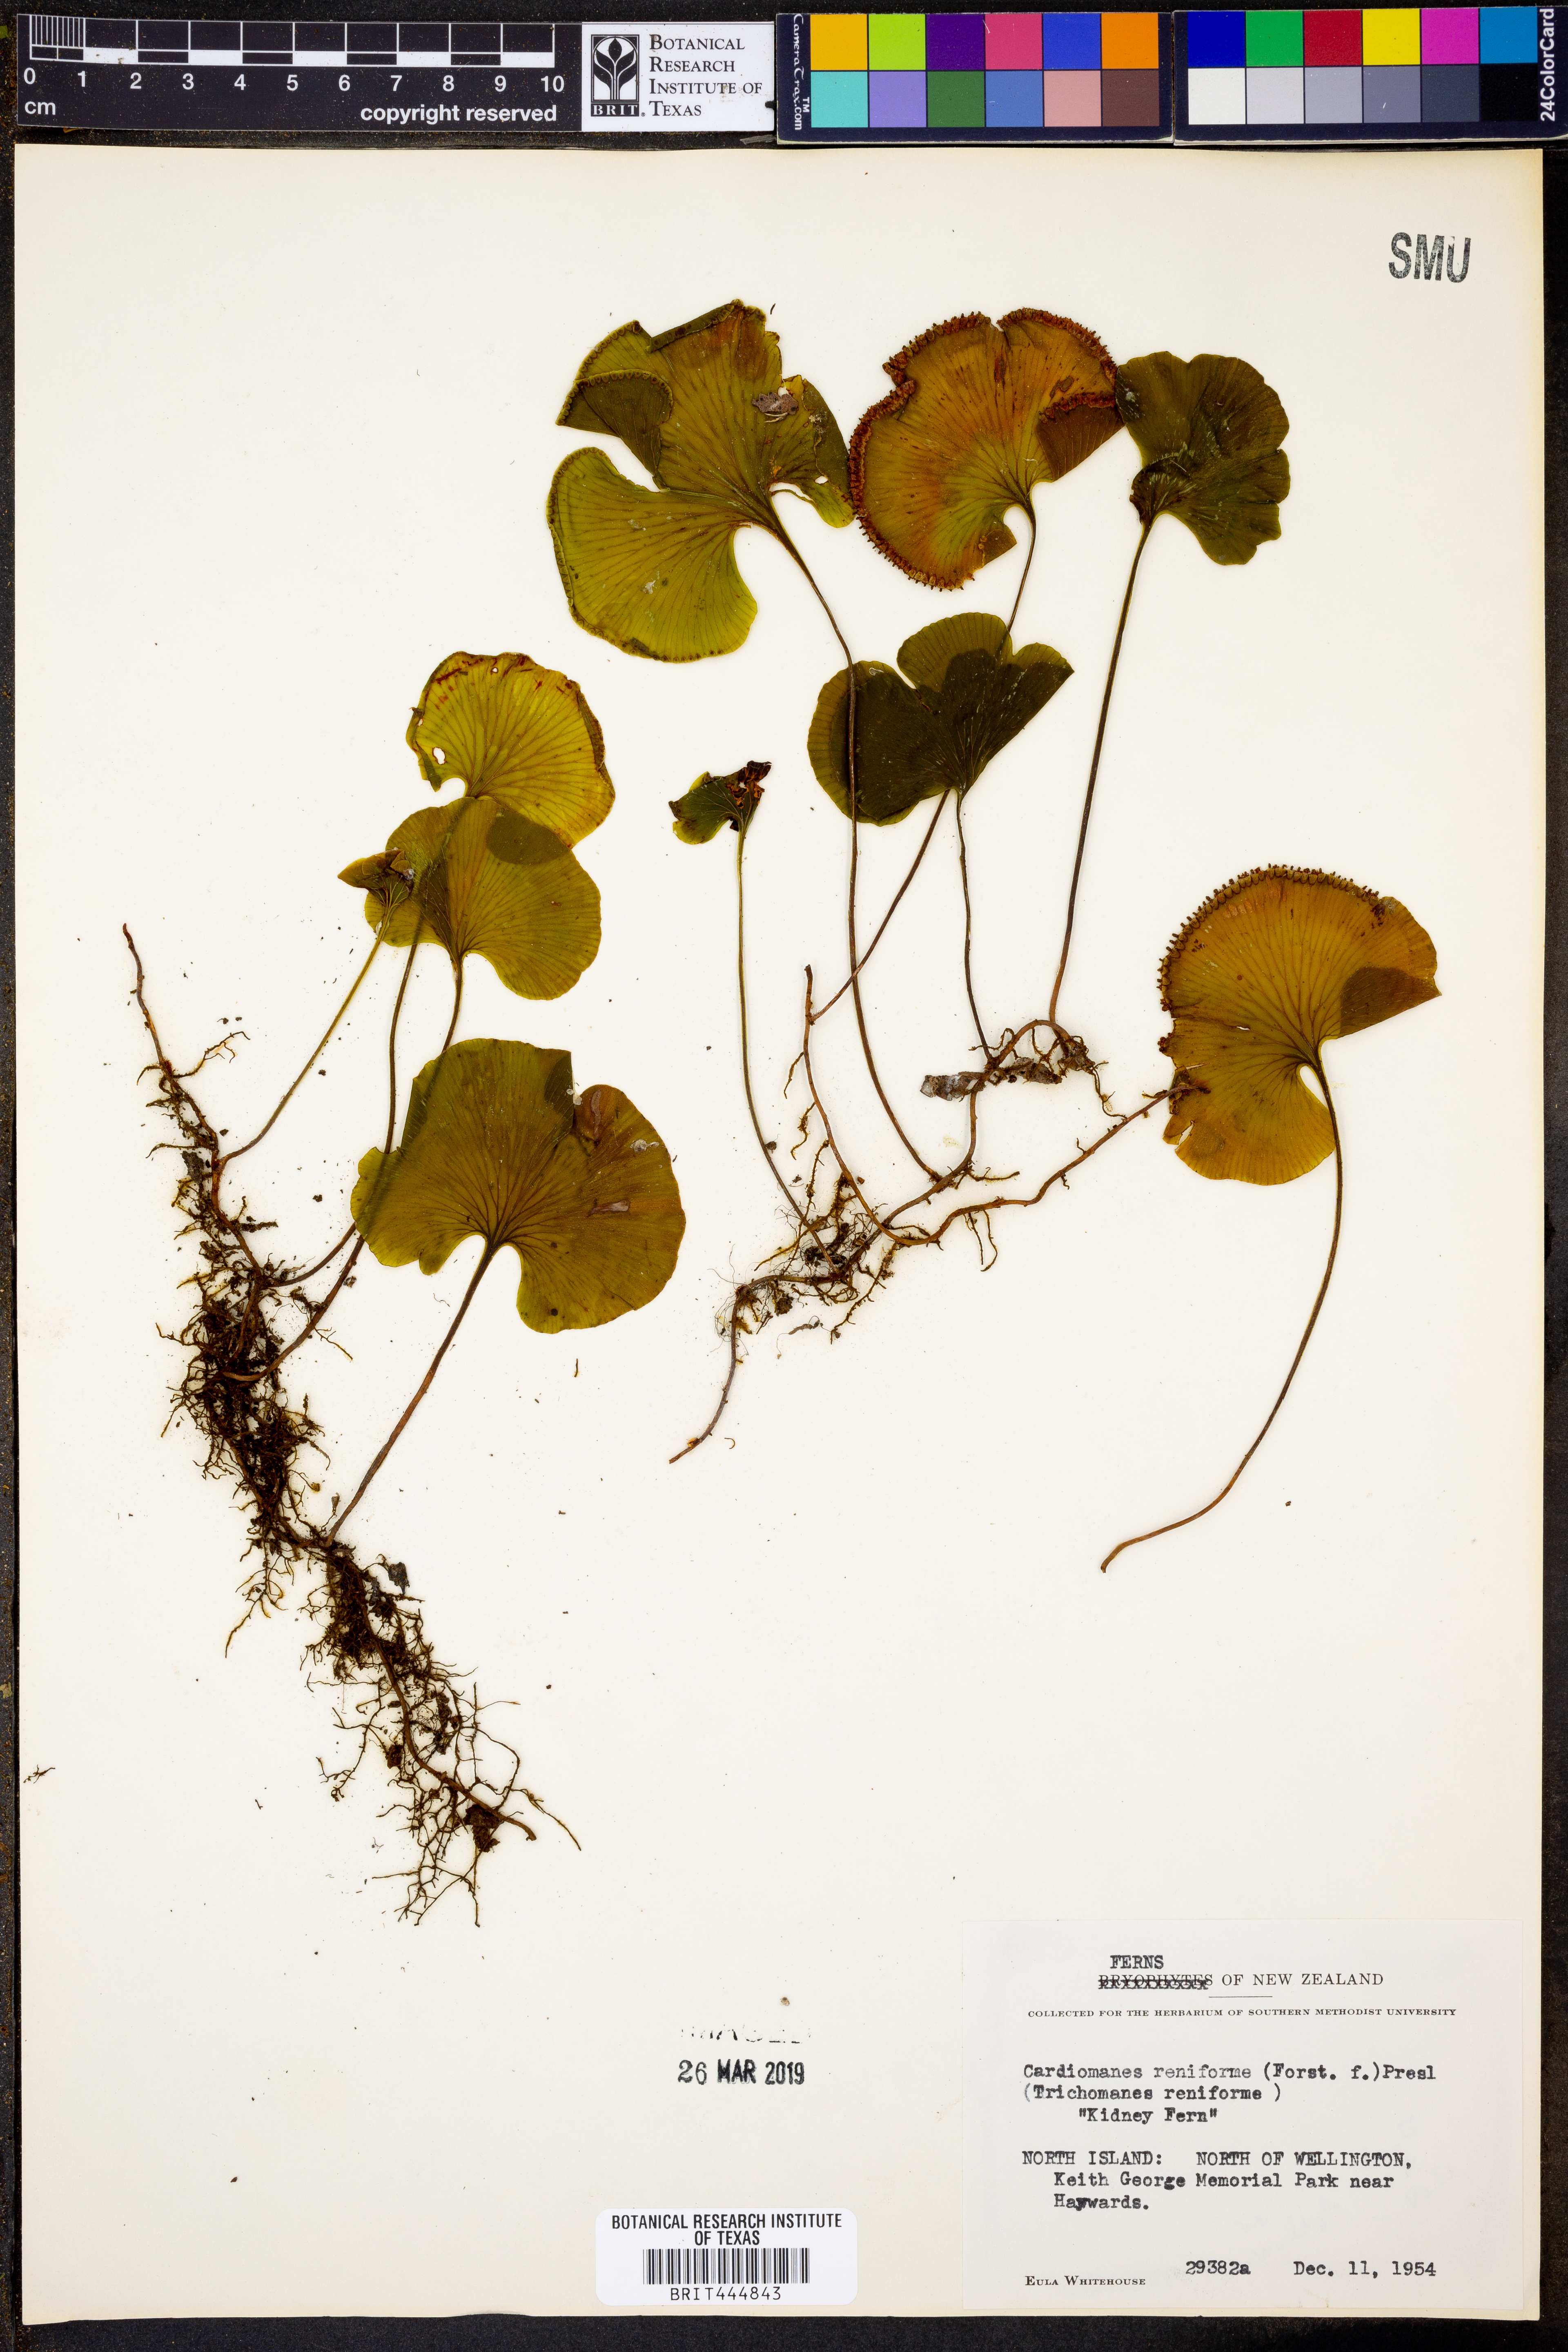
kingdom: Plantae
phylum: Tracheophyta
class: Polypodiopsida
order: Hymenophyllales
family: Hymenophyllaceae
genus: Hymenophyllum
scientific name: Hymenophyllum nephrophyllum
